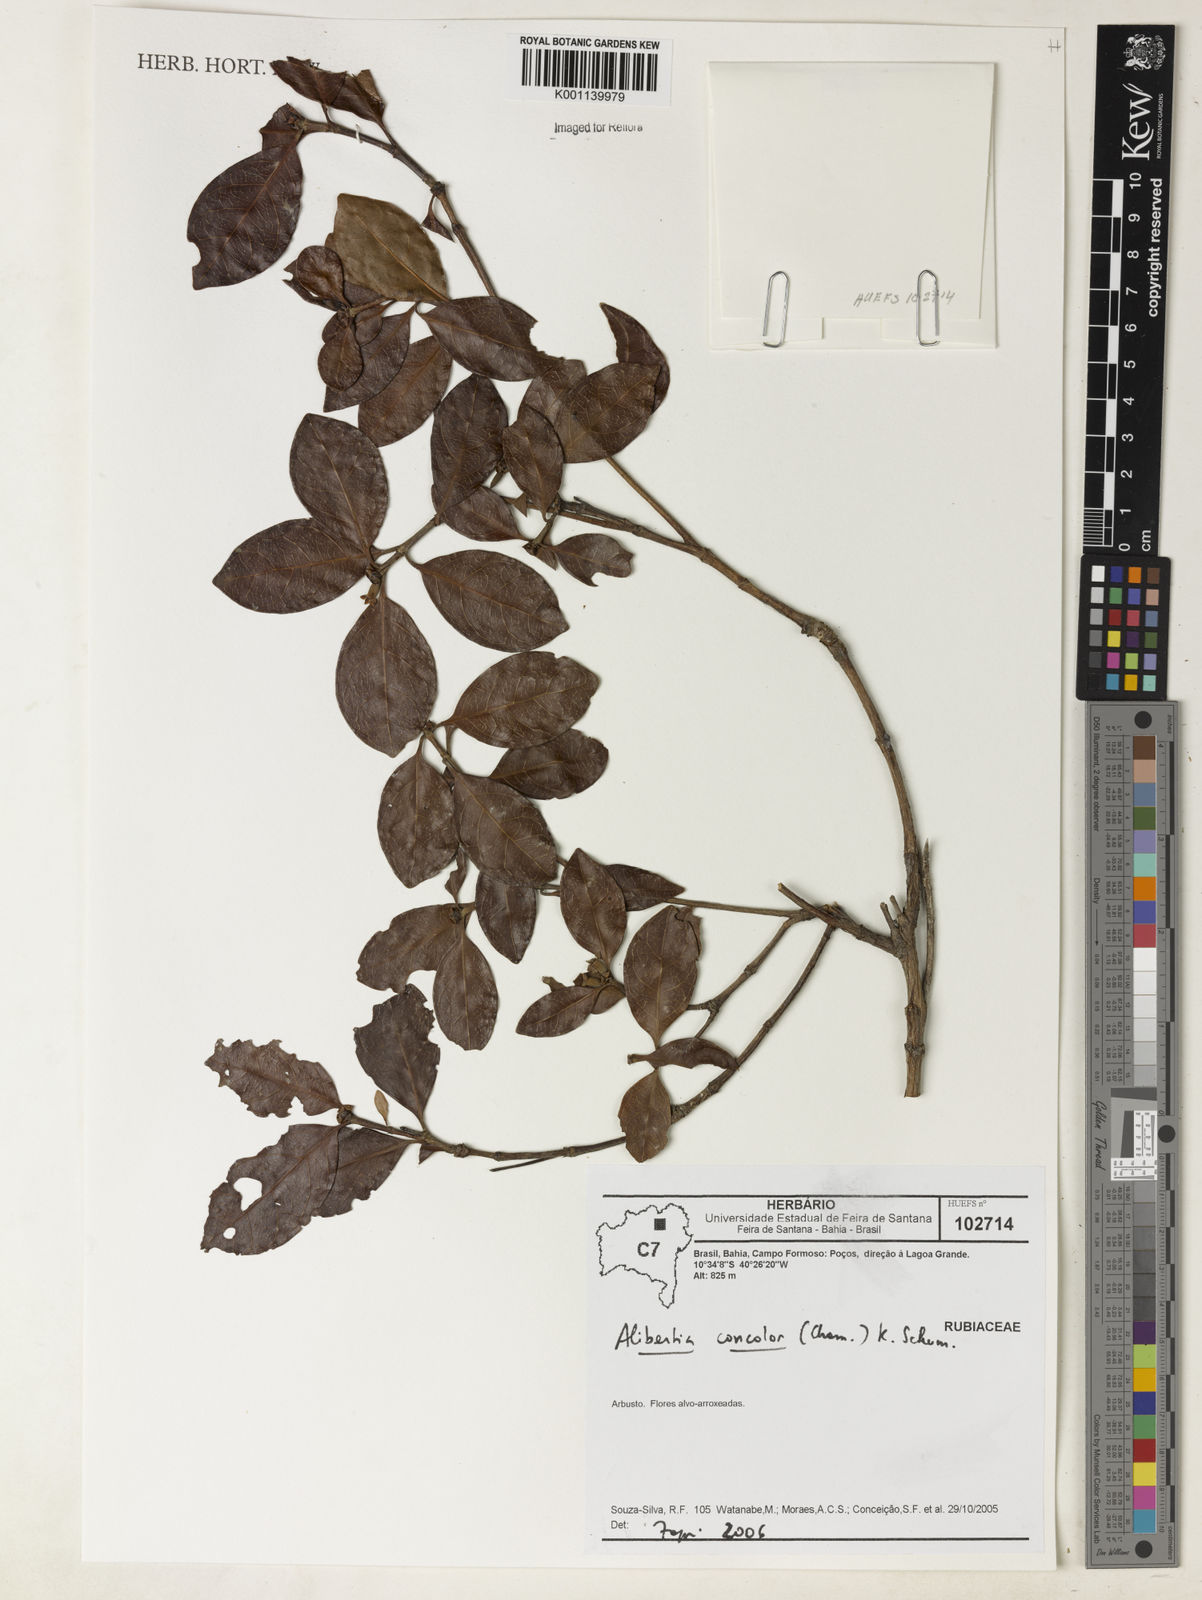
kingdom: Plantae
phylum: Tracheophyta
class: Magnoliopsida
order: Gentianales
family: Rubiaceae
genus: Cordiera
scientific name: Cordiera concolor
